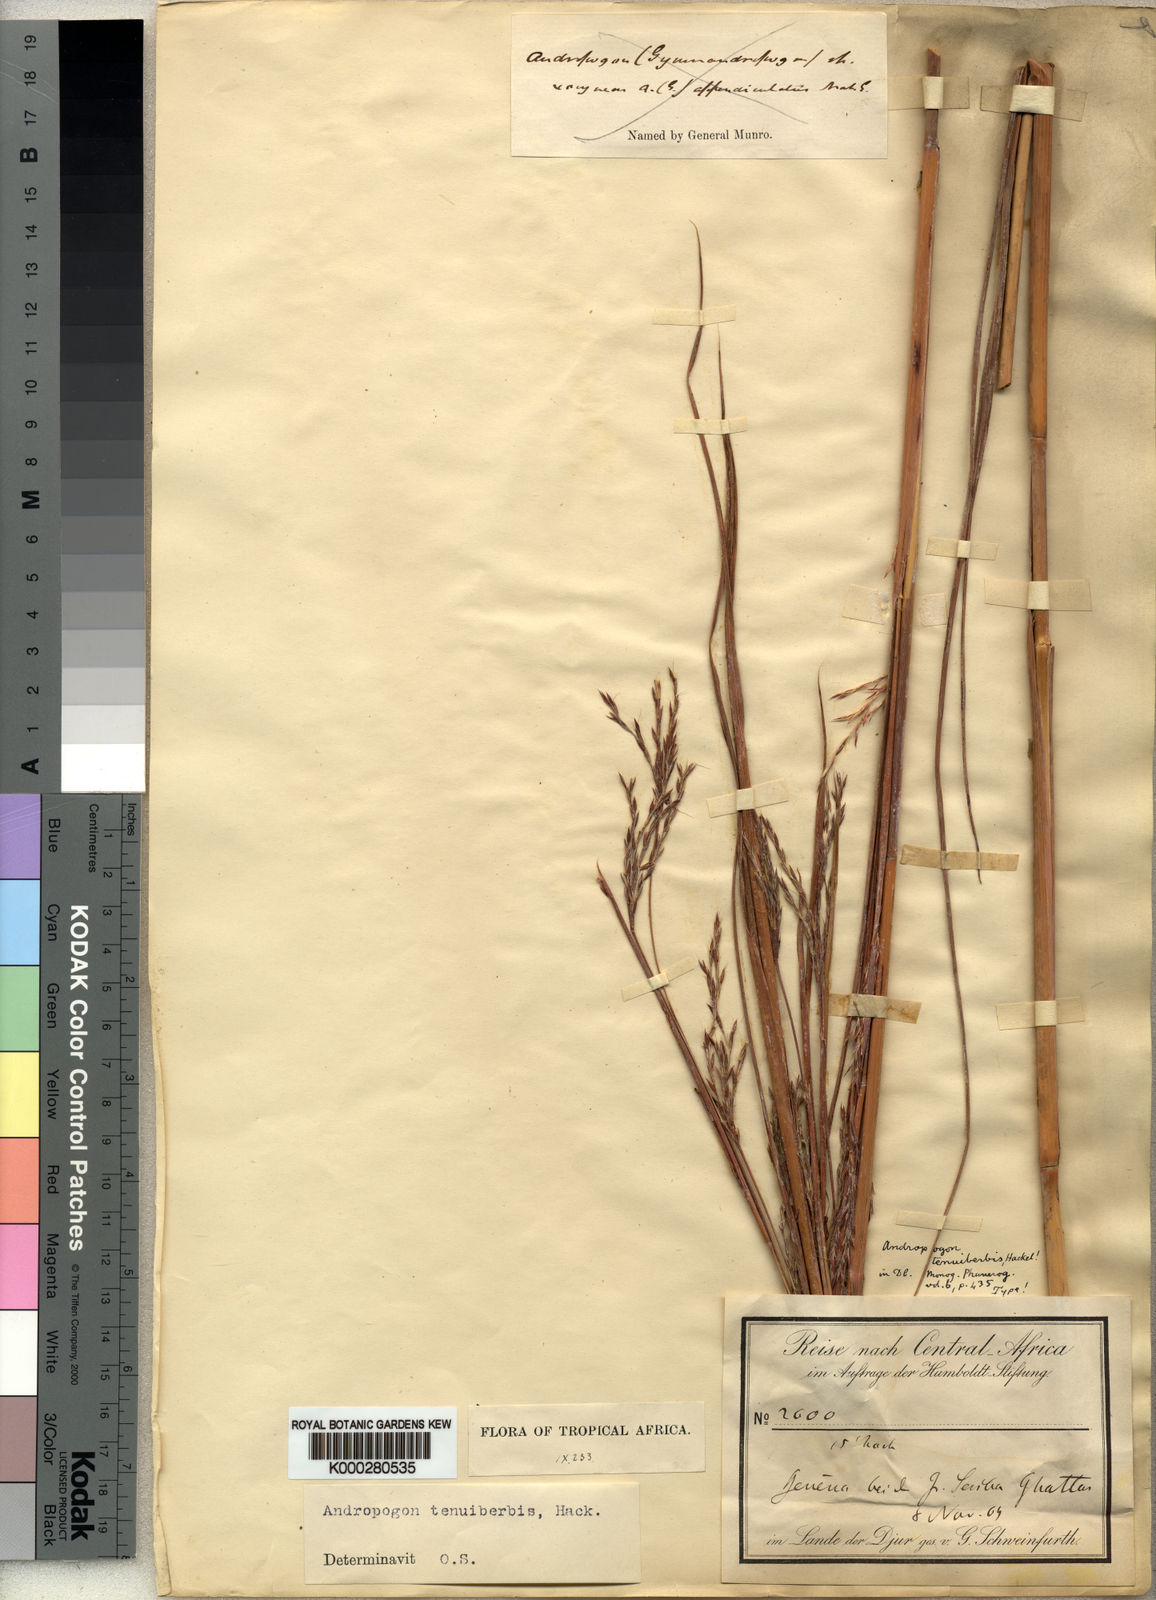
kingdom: Plantae
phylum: Tracheophyta
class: Liliopsida
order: Poales
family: Poaceae
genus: Andropogon
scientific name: Andropogon tenuiberbis
